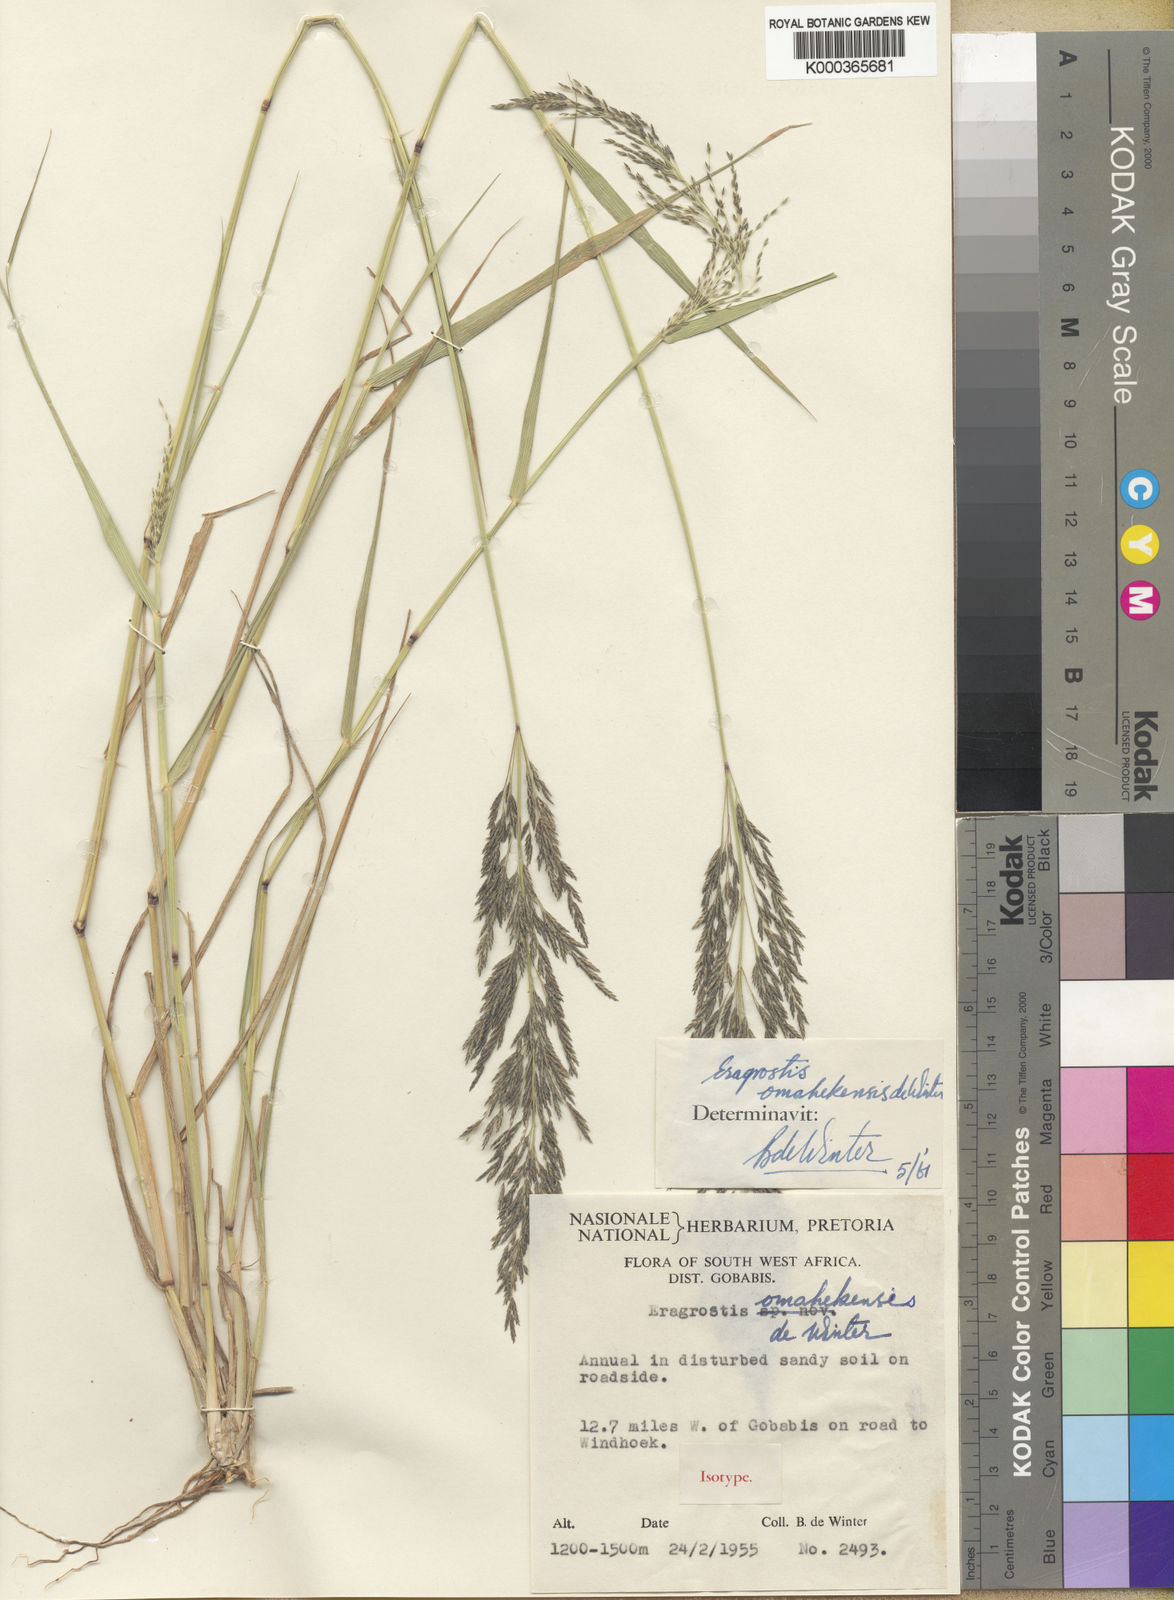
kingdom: Plantae
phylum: Tracheophyta
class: Liliopsida
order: Poales
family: Poaceae
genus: Eragrostis
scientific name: Eragrostis omahekensis
